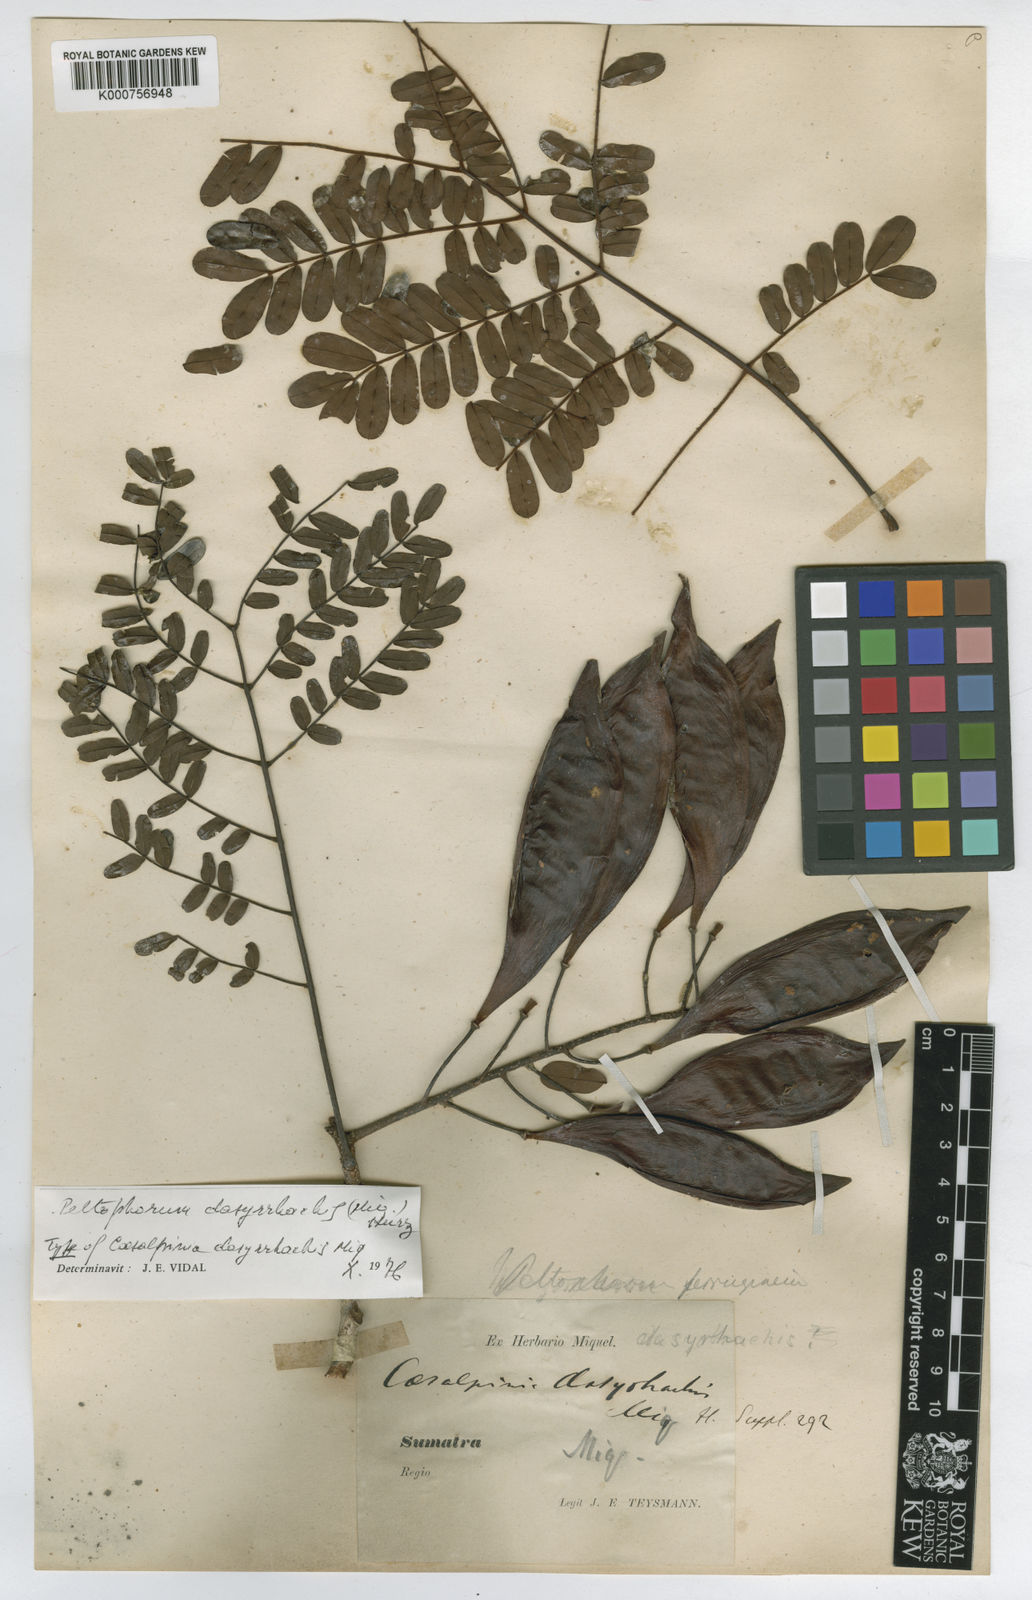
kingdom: Plantae
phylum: Tracheophyta
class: Magnoliopsida
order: Fabales
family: Fabaceae
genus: Peltophorum
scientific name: Peltophorum pterocarpum
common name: Yellow flame
